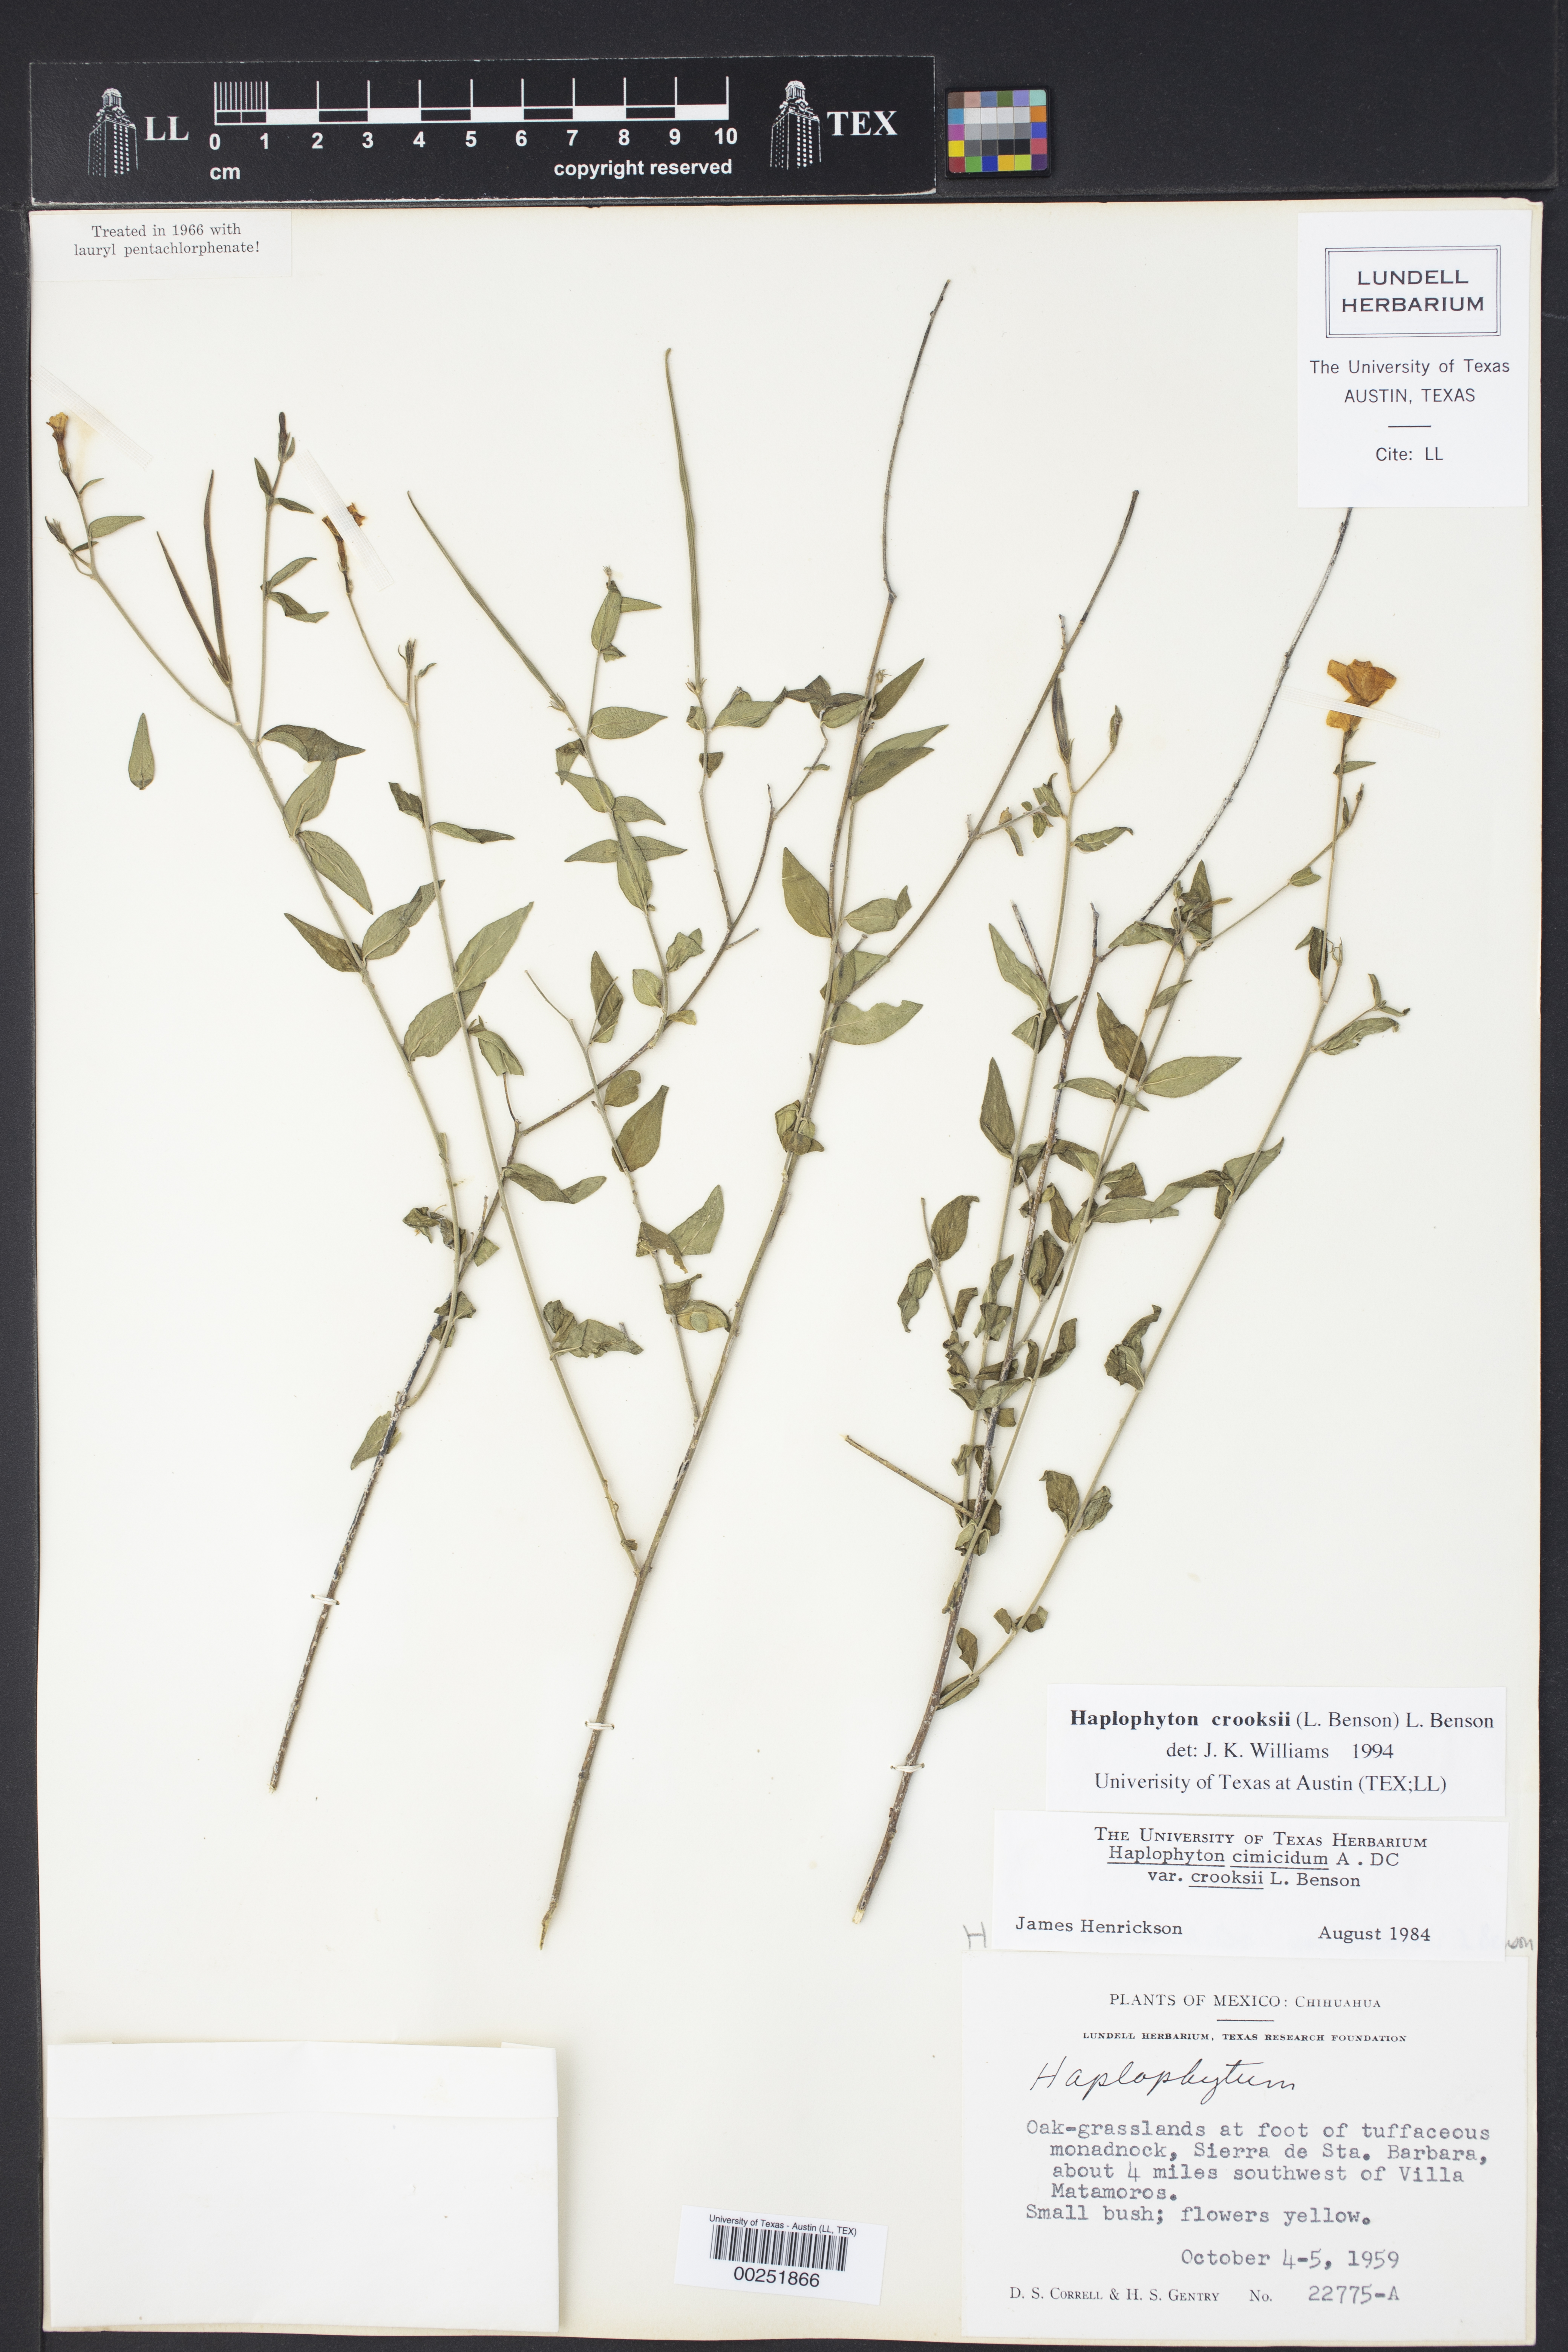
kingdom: Plantae
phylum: Tracheophyta
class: Magnoliopsida
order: Gentianales
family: Apocynaceae
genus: Haplophyton
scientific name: Haplophyton crooksii
